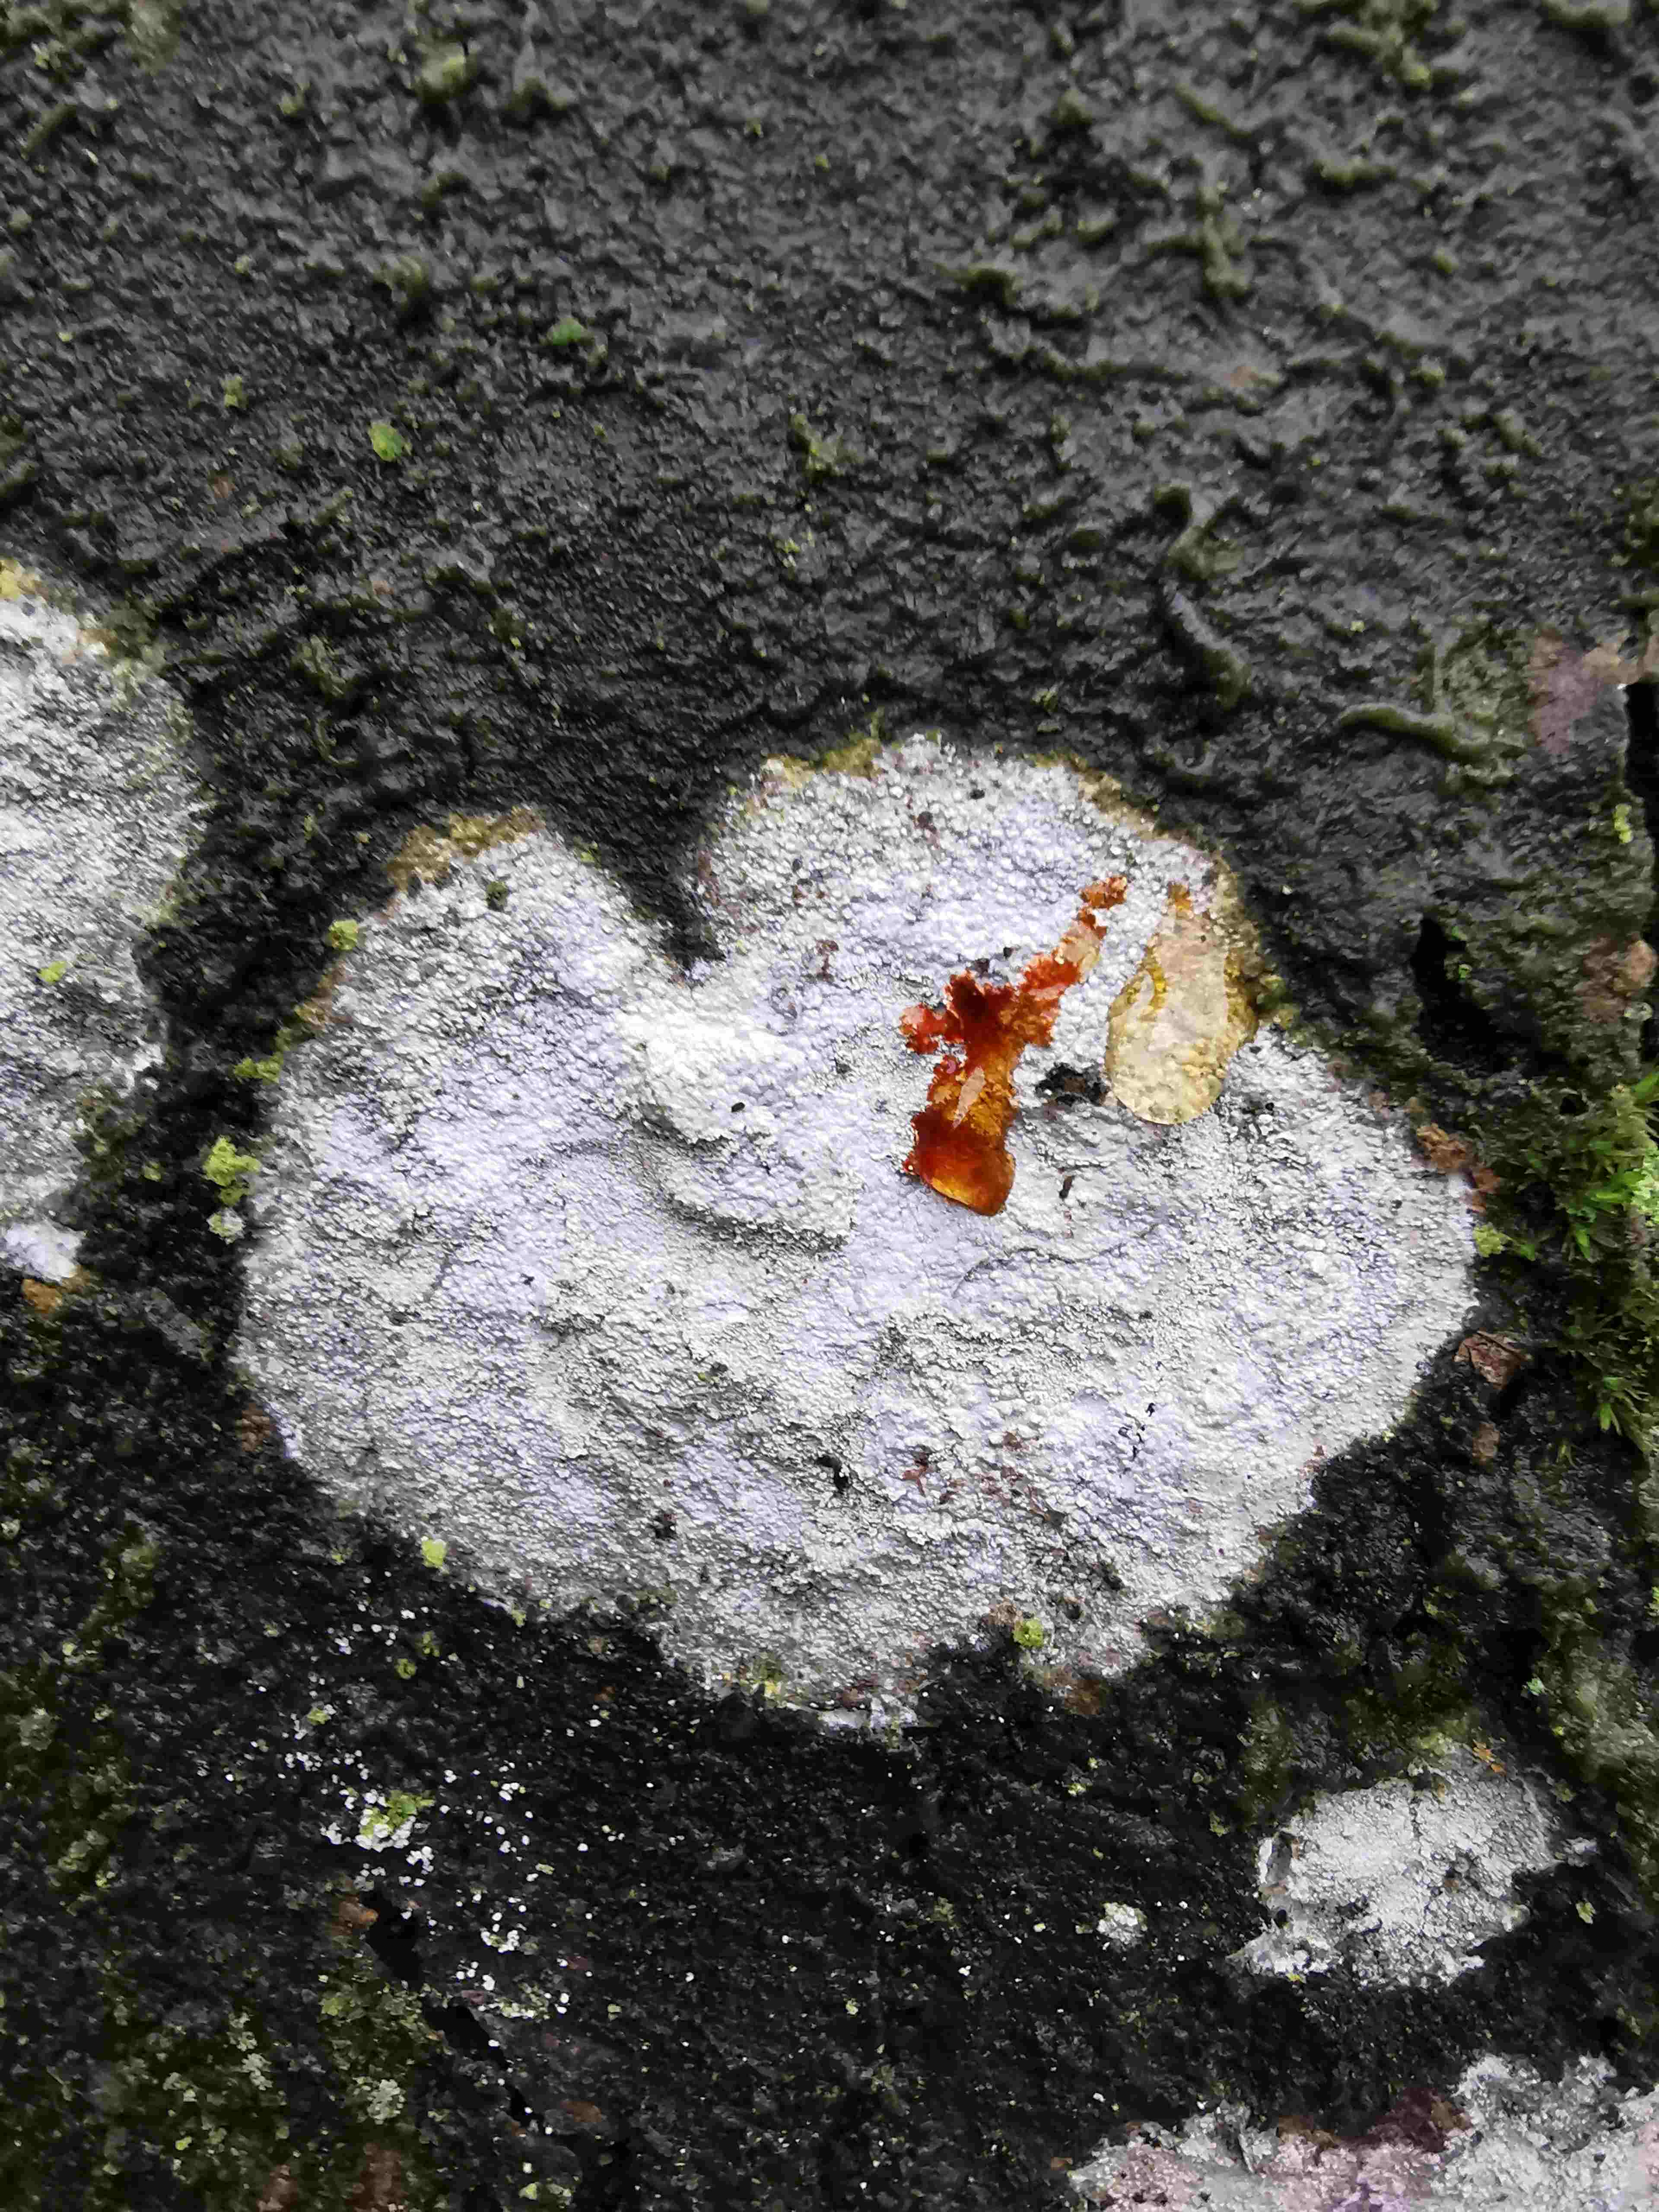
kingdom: Fungi
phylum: Ascomycota
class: Lecanoromycetes
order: Ostropales
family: Phlyctidaceae
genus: Phlyctis
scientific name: Phlyctis argena
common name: almindelig sølvlav
